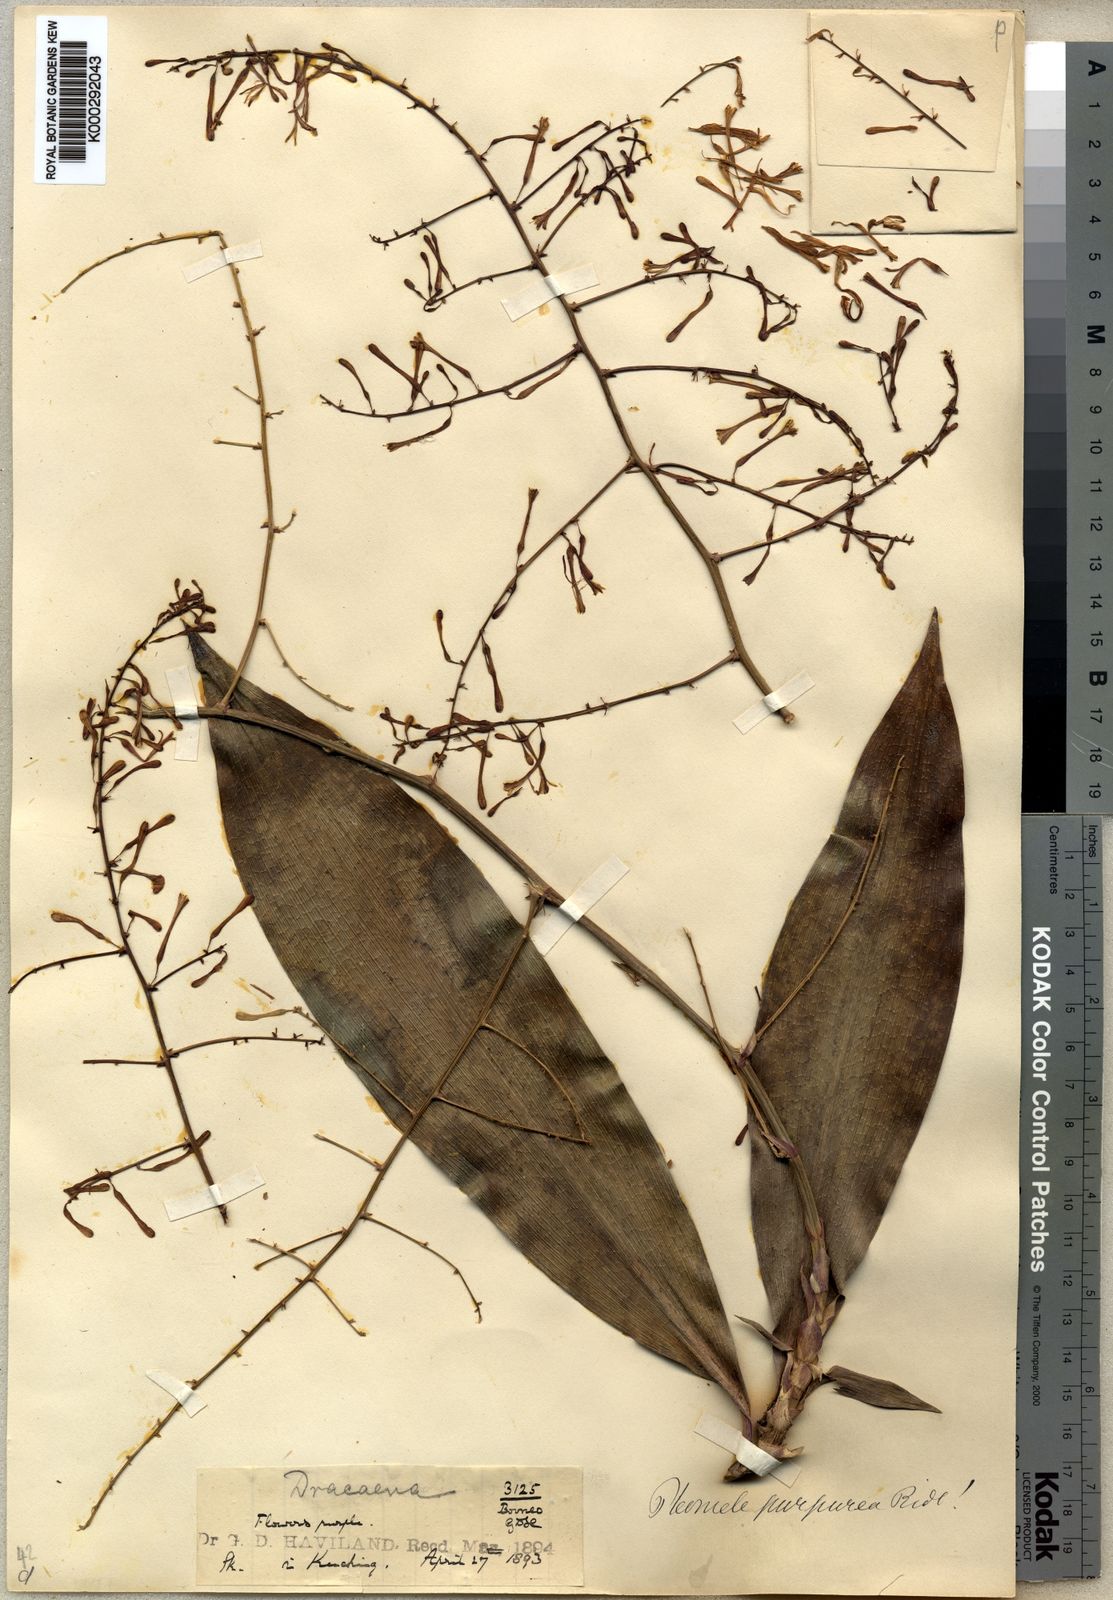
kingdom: Plantae
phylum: Tracheophyta
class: Liliopsida
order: Asparagales
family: Asparagaceae
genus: Dracaena
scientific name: Dracaena purpurea
